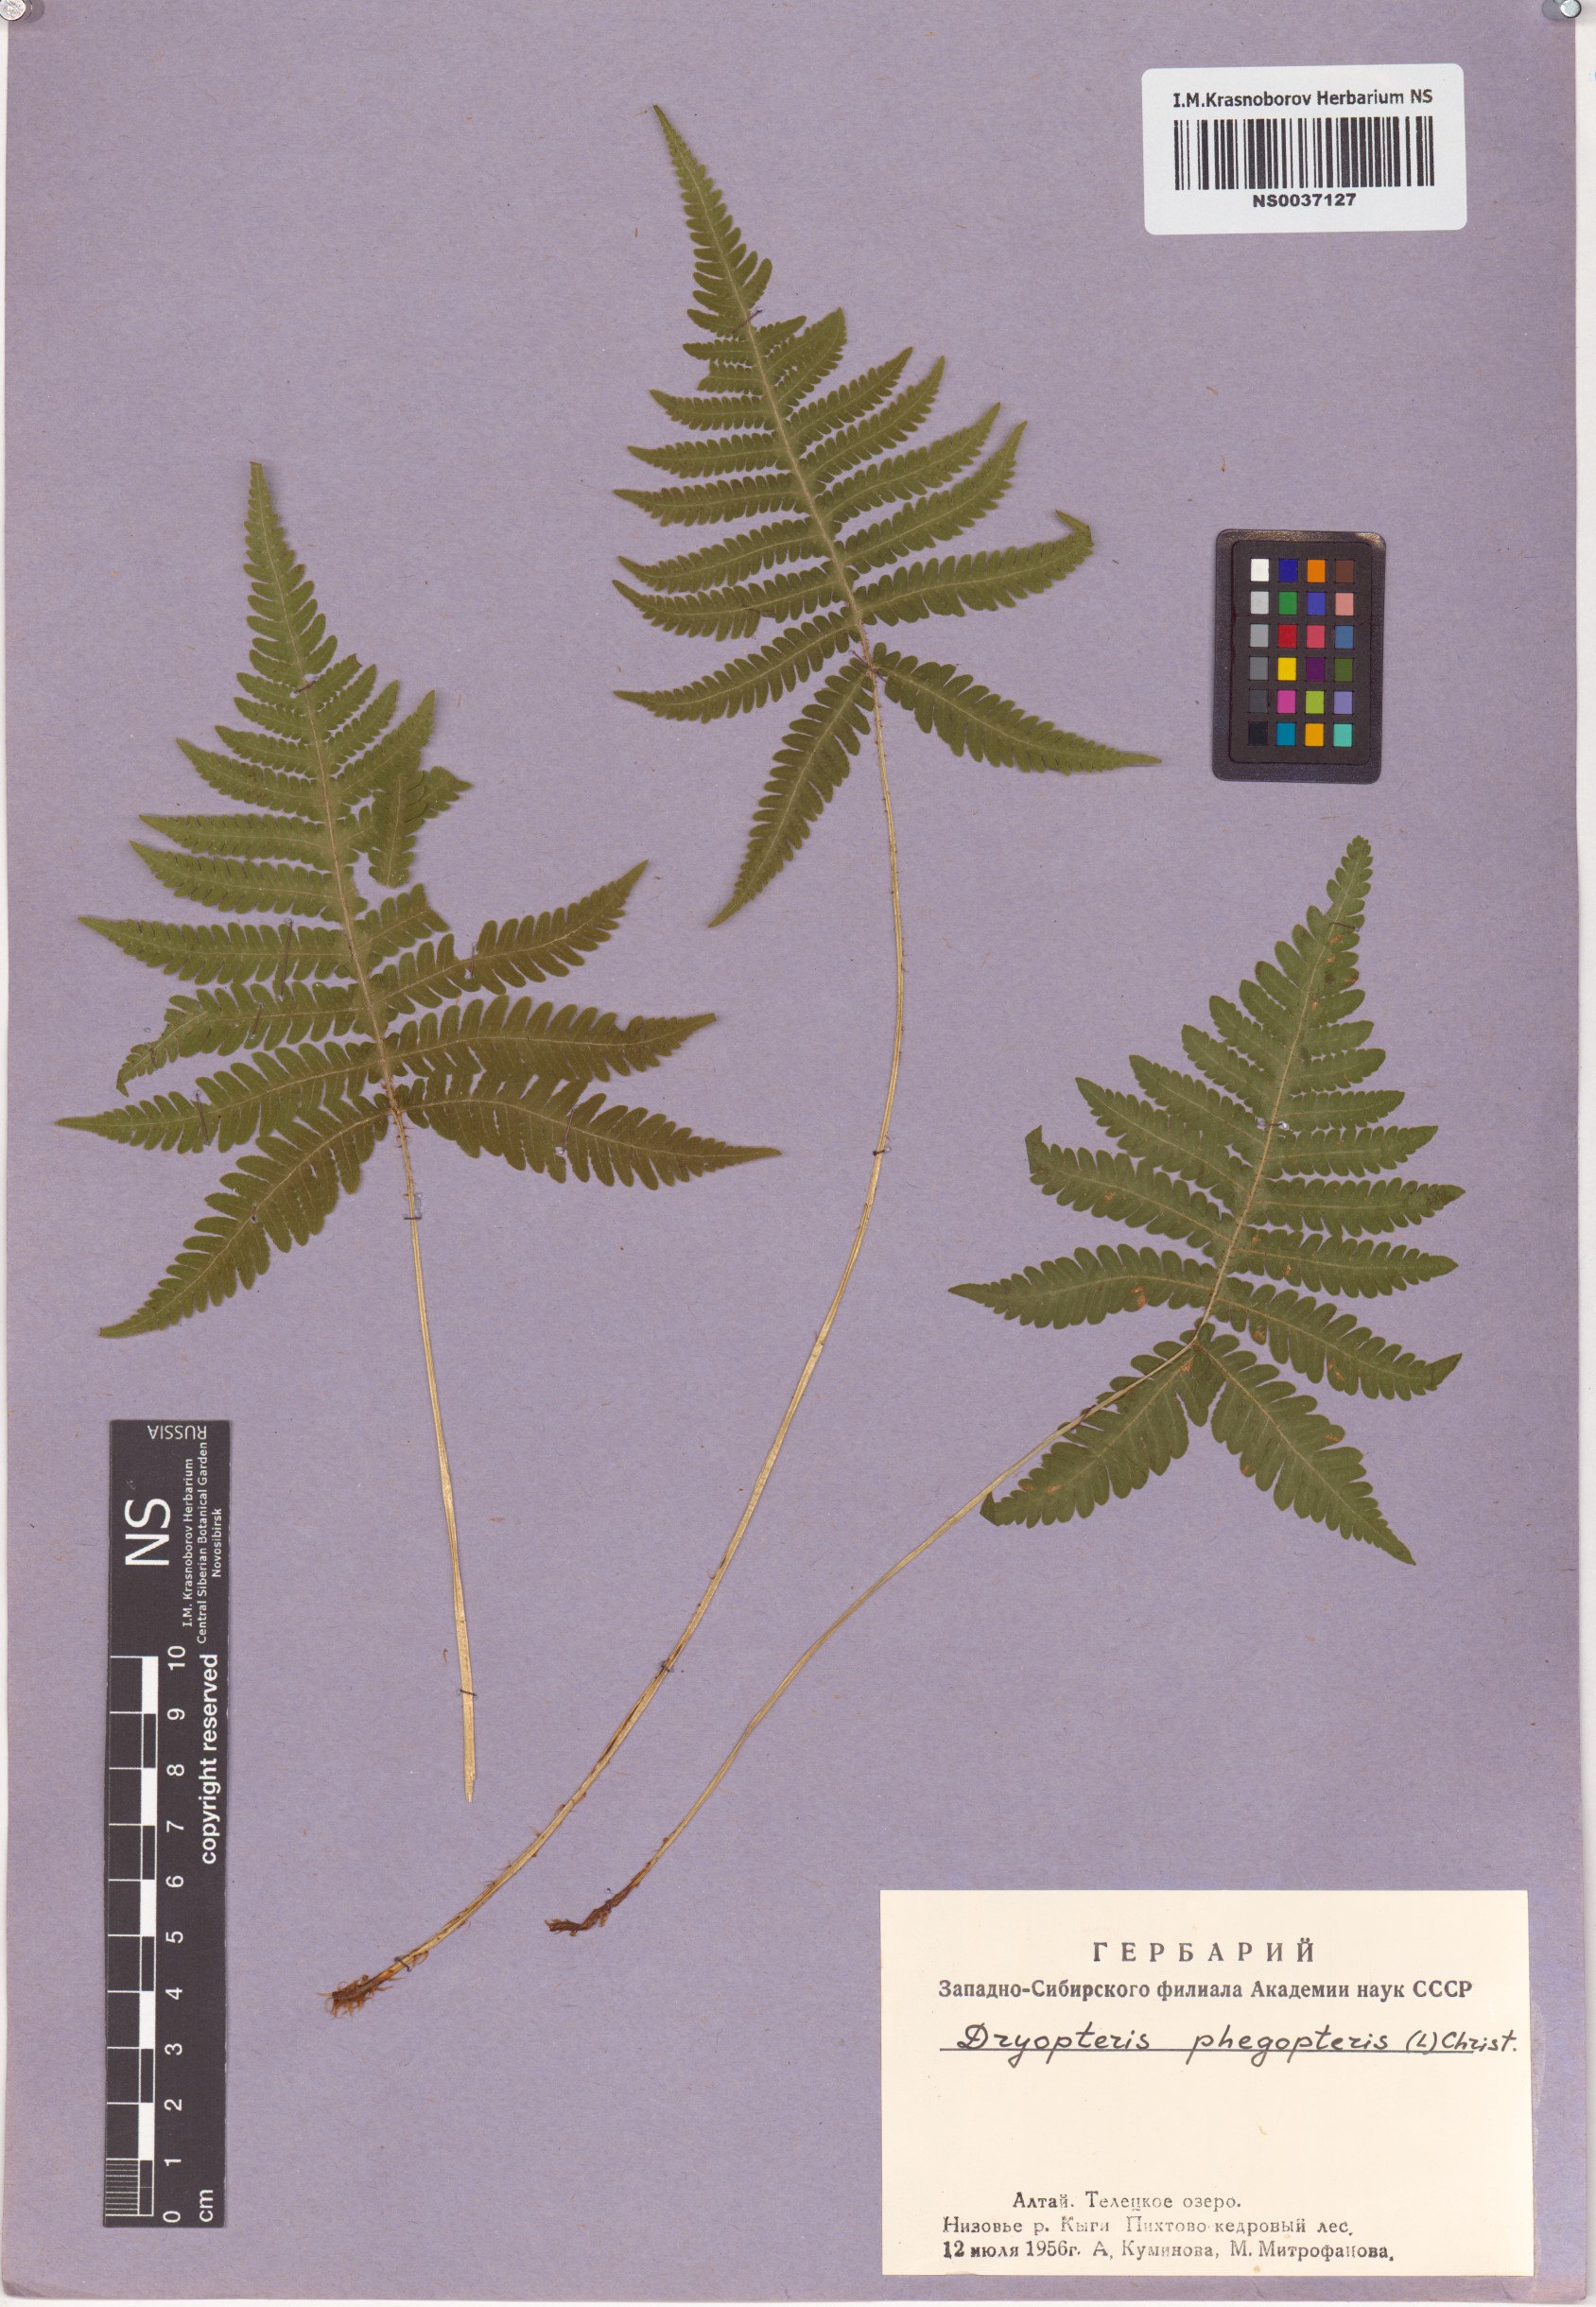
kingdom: Plantae
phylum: Tracheophyta
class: Polypodiopsida
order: Polypodiales
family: Thelypteridaceae
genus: Phegopteris
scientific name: Phegopteris connectilis
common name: Beech fern
